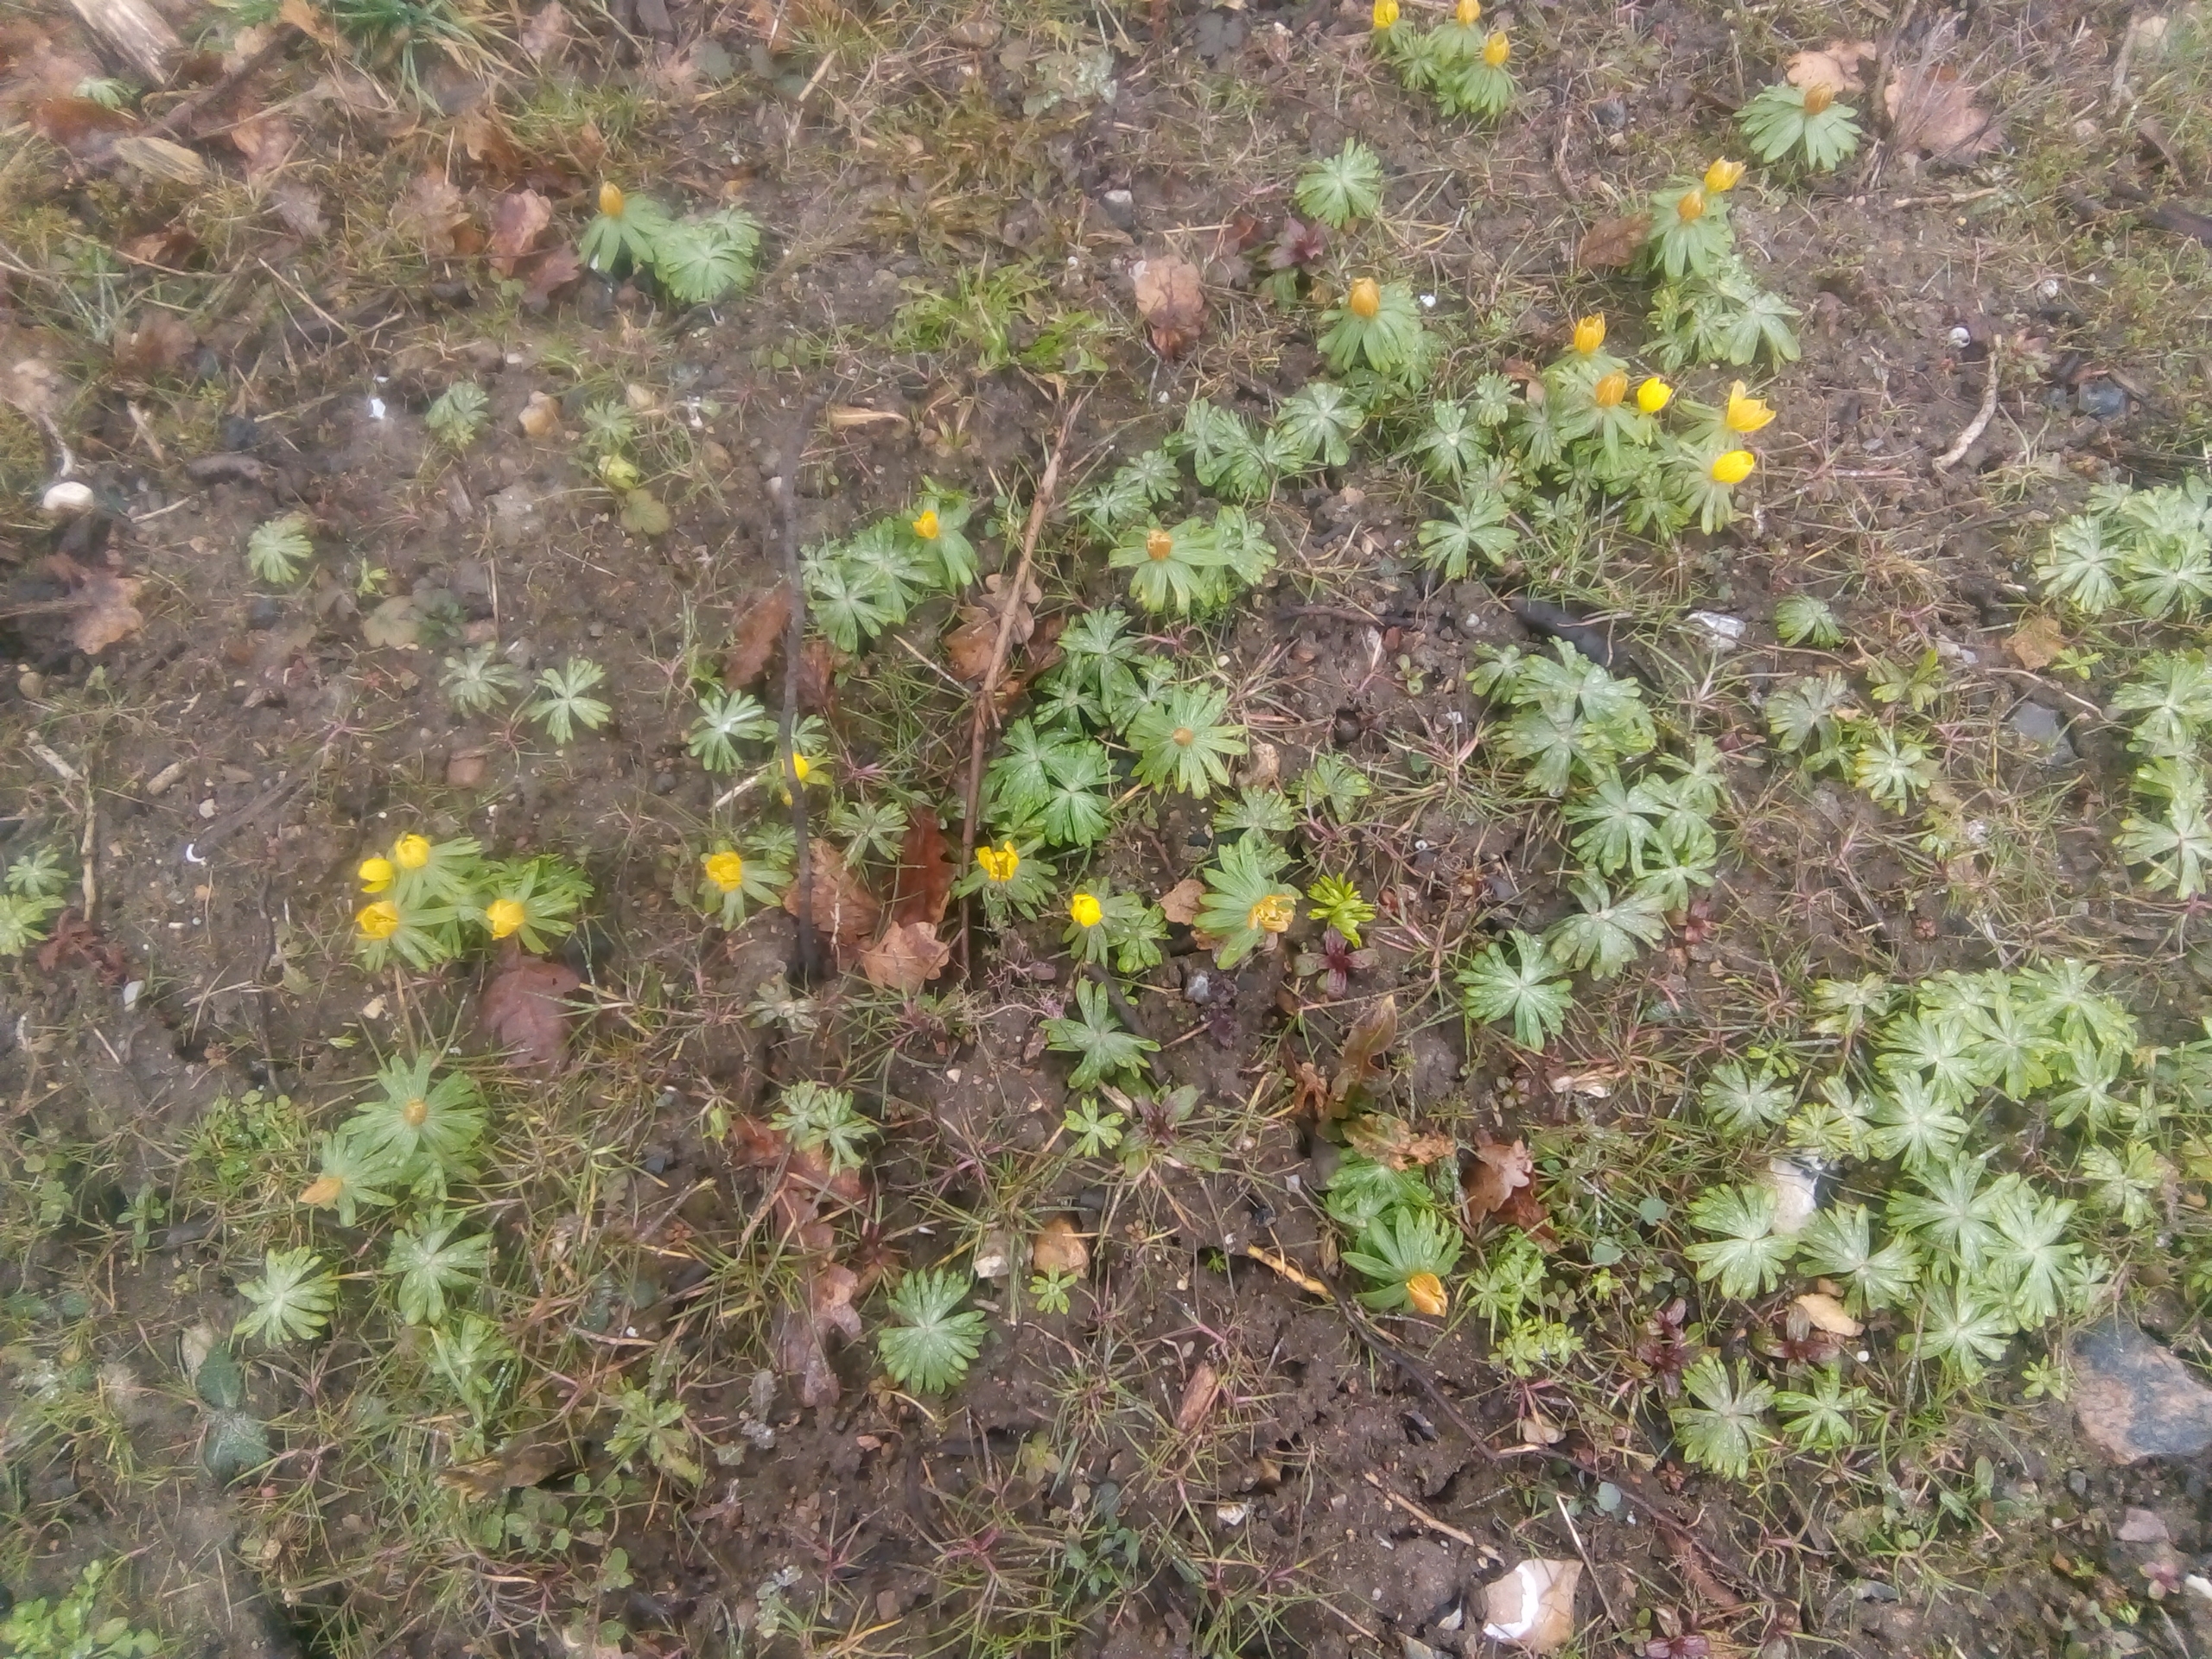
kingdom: Plantae
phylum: Tracheophyta
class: Magnoliopsida
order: Ranunculales
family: Ranunculaceae
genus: Eranthis
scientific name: Eranthis hyemalis
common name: Erantis
